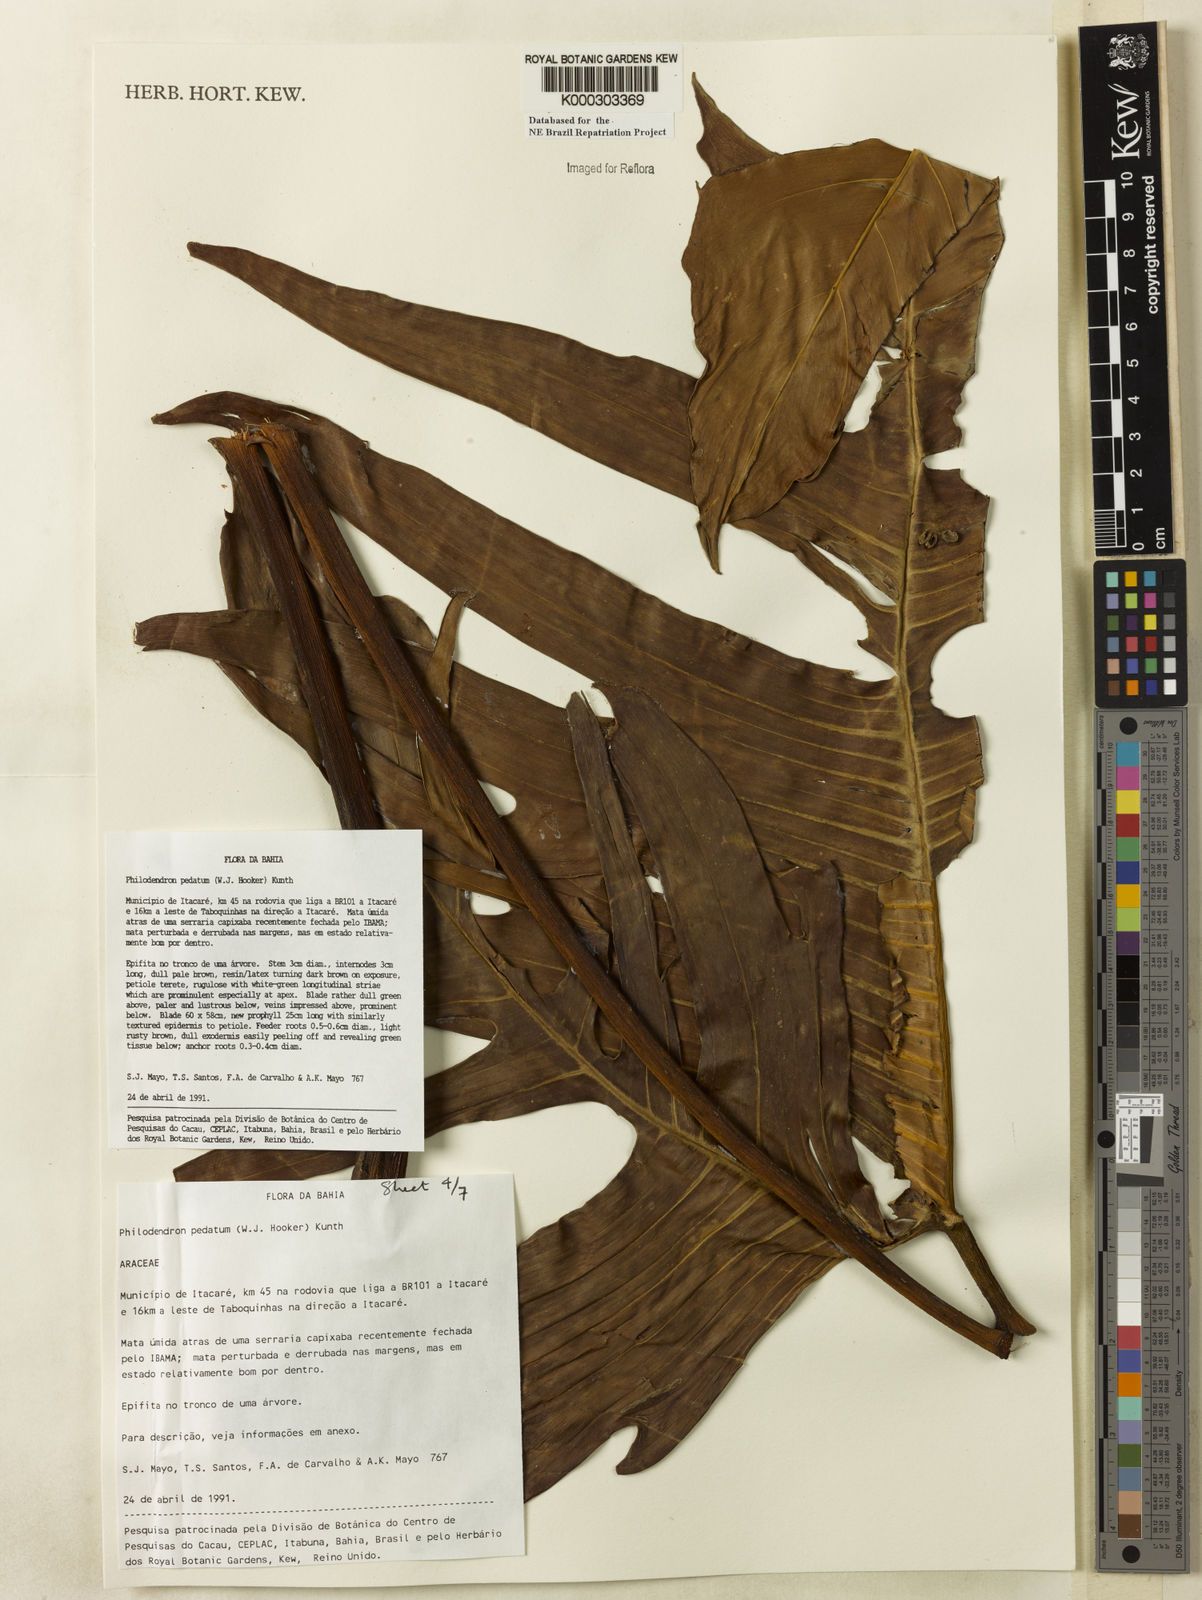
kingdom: Plantae
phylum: Tracheophyta
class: Liliopsida
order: Alismatales
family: Araceae
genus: Philodendron
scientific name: Philodendron pedatum
